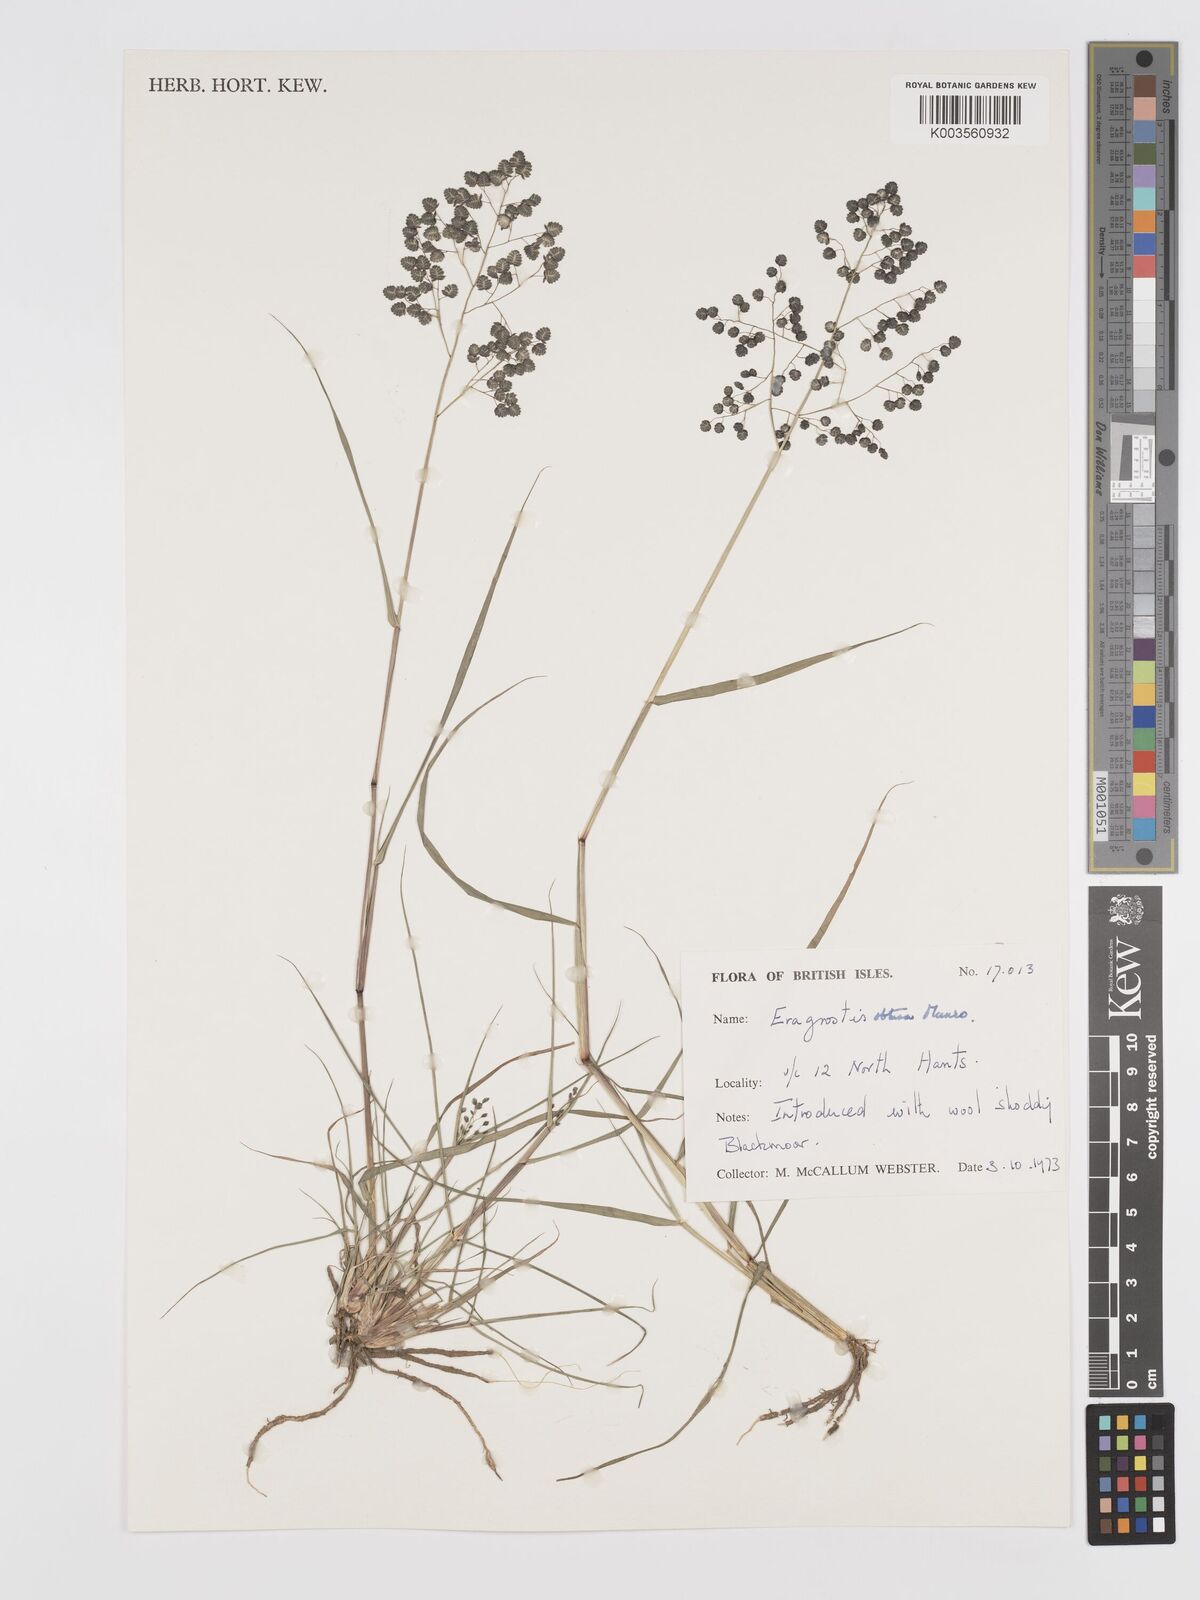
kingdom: Plantae
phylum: Tracheophyta
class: Liliopsida
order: Poales
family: Poaceae
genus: Eragrostis
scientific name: Eragrostis obtusa
